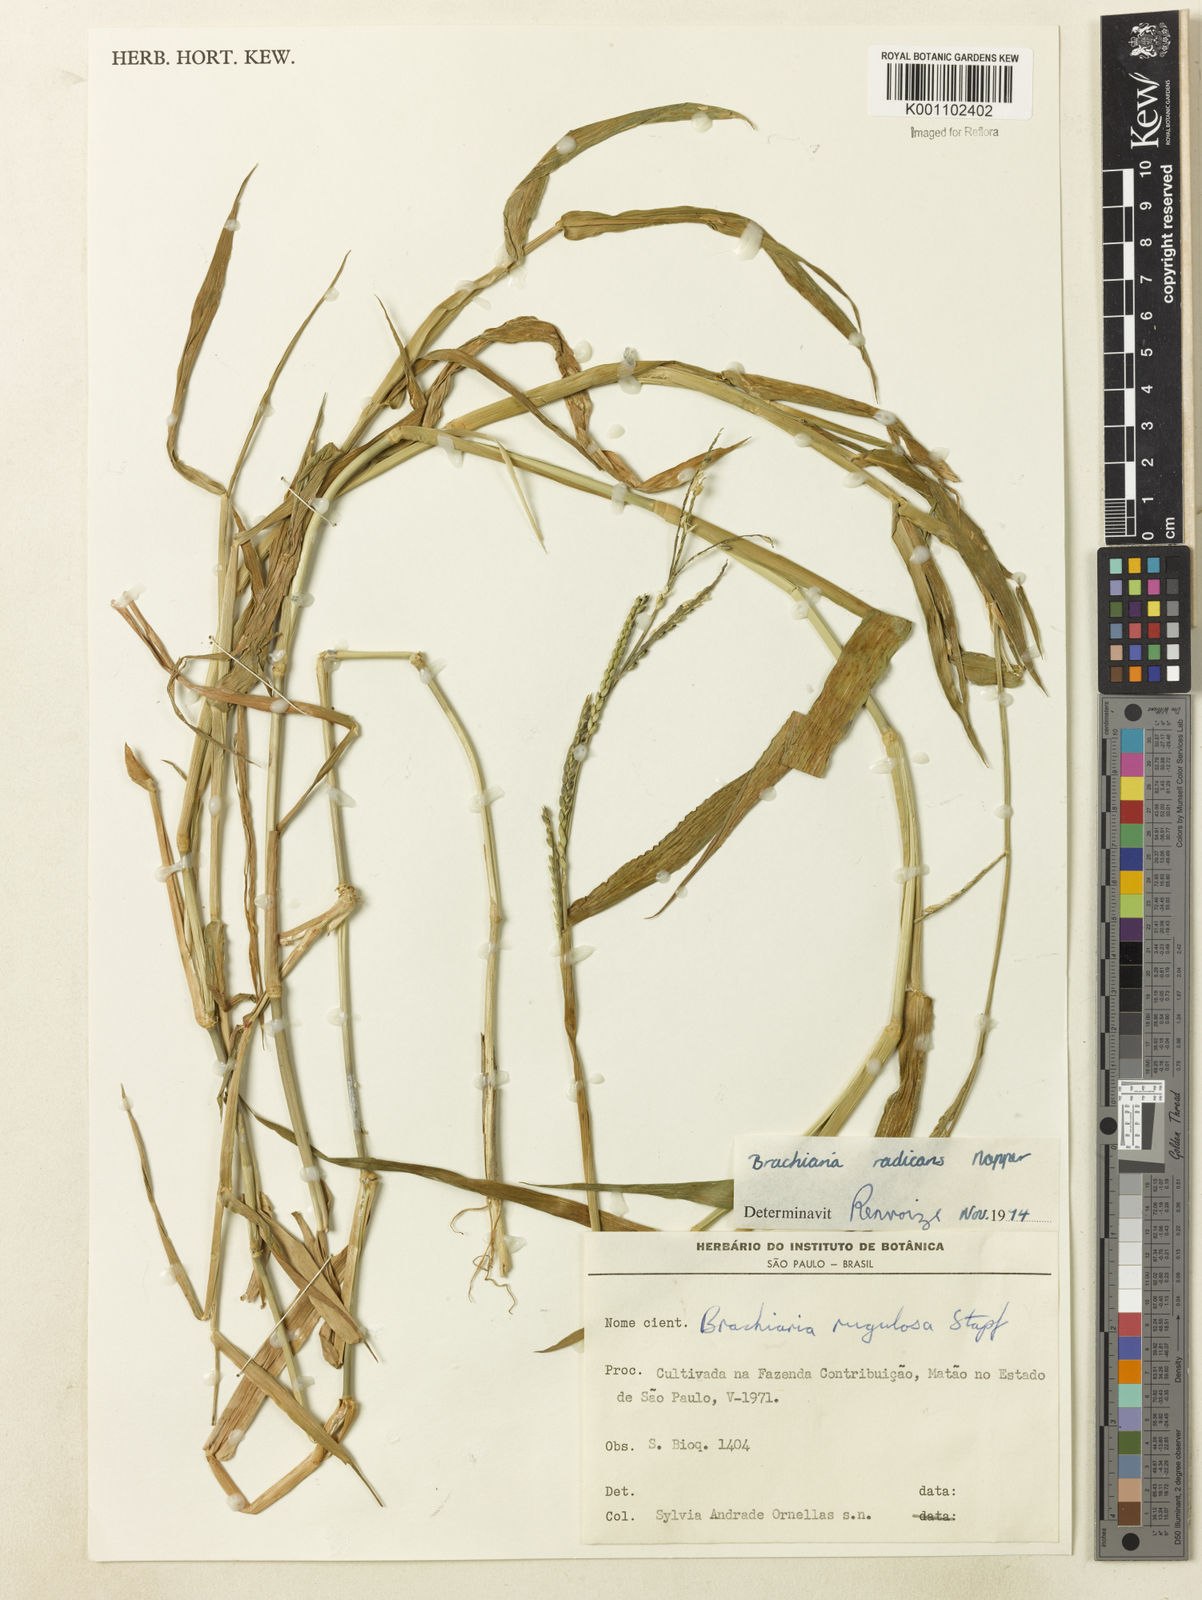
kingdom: Plantae
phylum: Tracheophyta
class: Liliopsida
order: Poales
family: Poaceae
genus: Urochloa
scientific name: Urochloa arrecta
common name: African signalgrass
